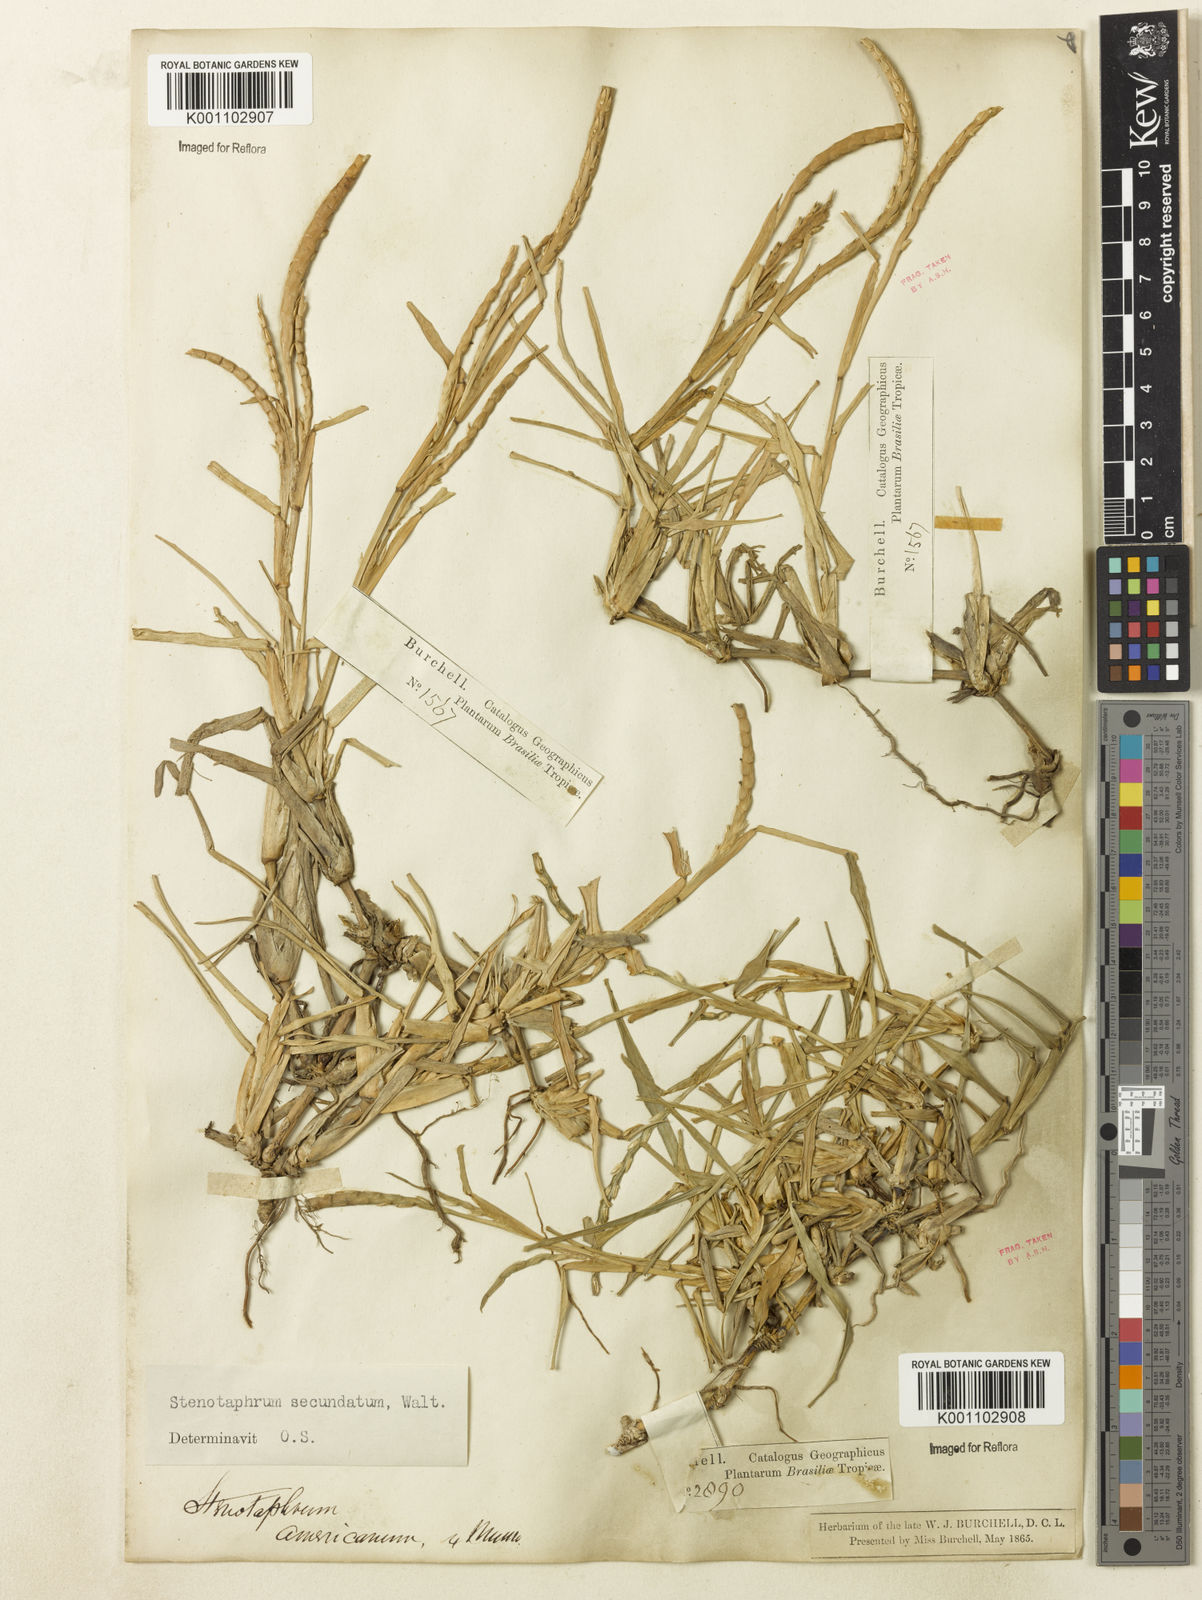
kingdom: Plantae
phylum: Tracheophyta
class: Liliopsida
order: Poales
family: Poaceae
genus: Stenotaphrum
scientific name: Stenotaphrum secundatum
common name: St. augustine grass
